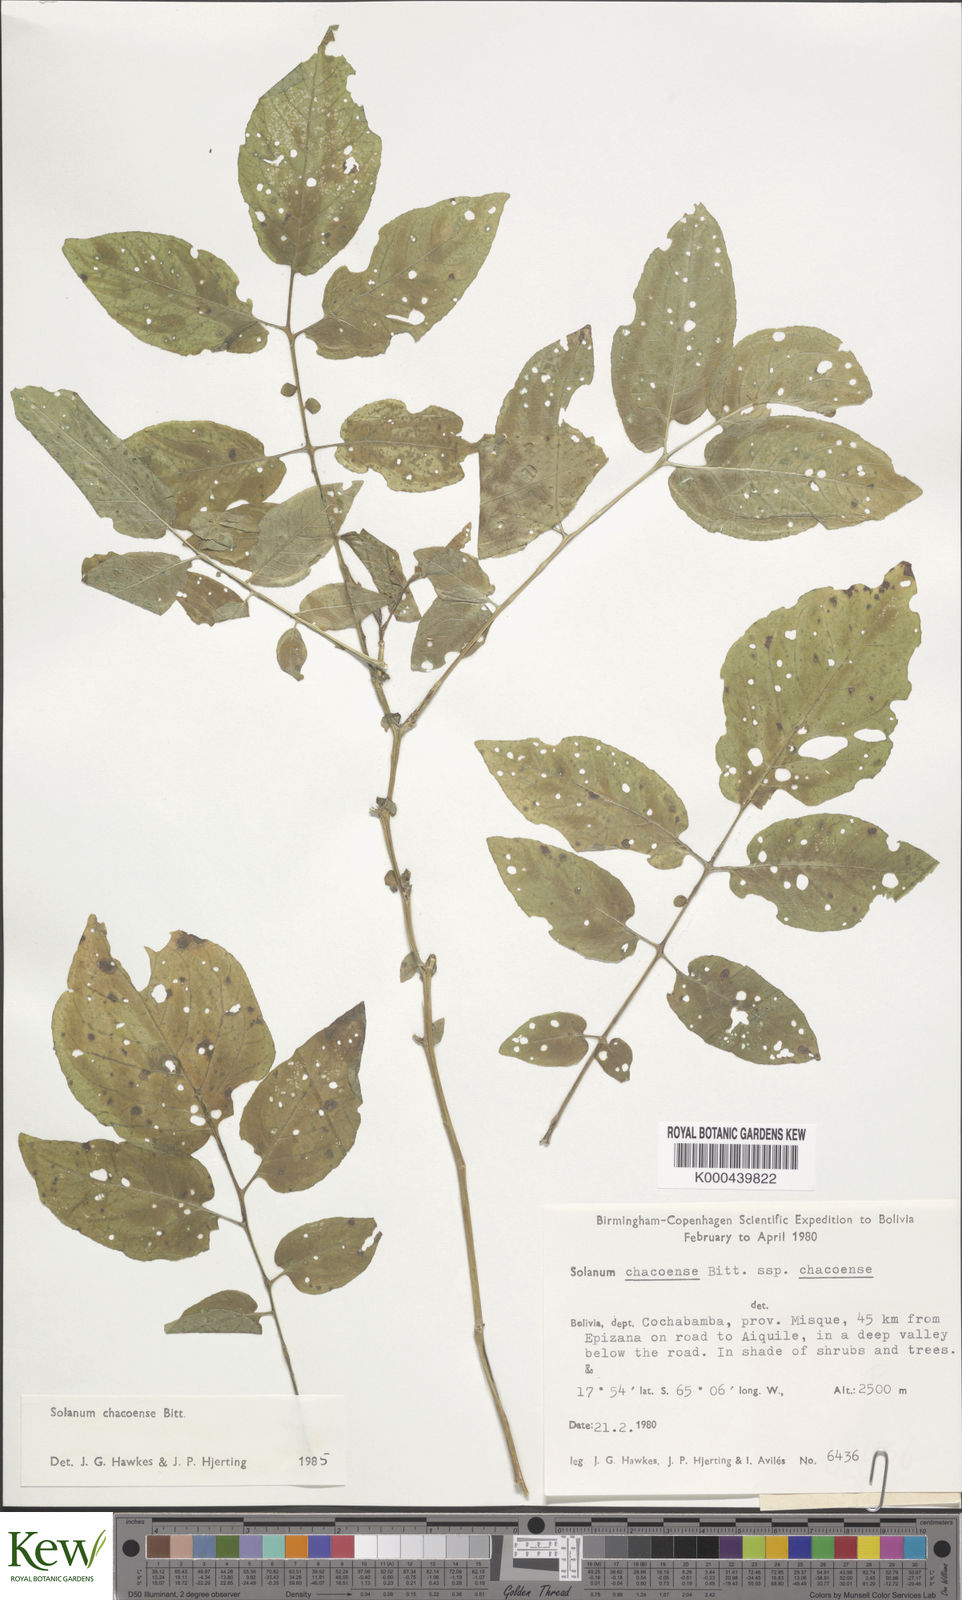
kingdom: Plantae
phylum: Tracheophyta
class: Magnoliopsida
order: Solanales
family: Solanaceae
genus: Solanum
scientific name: Solanum chacoense
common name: Chaco potato
